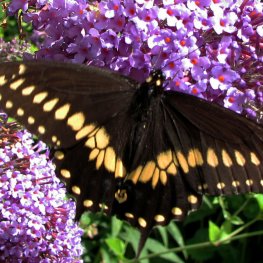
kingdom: Animalia
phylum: Arthropoda
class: Insecta
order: Lepidoptera
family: Papilionidae
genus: Papilio
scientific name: Papilio polyxenes
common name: Black Swallowtail
